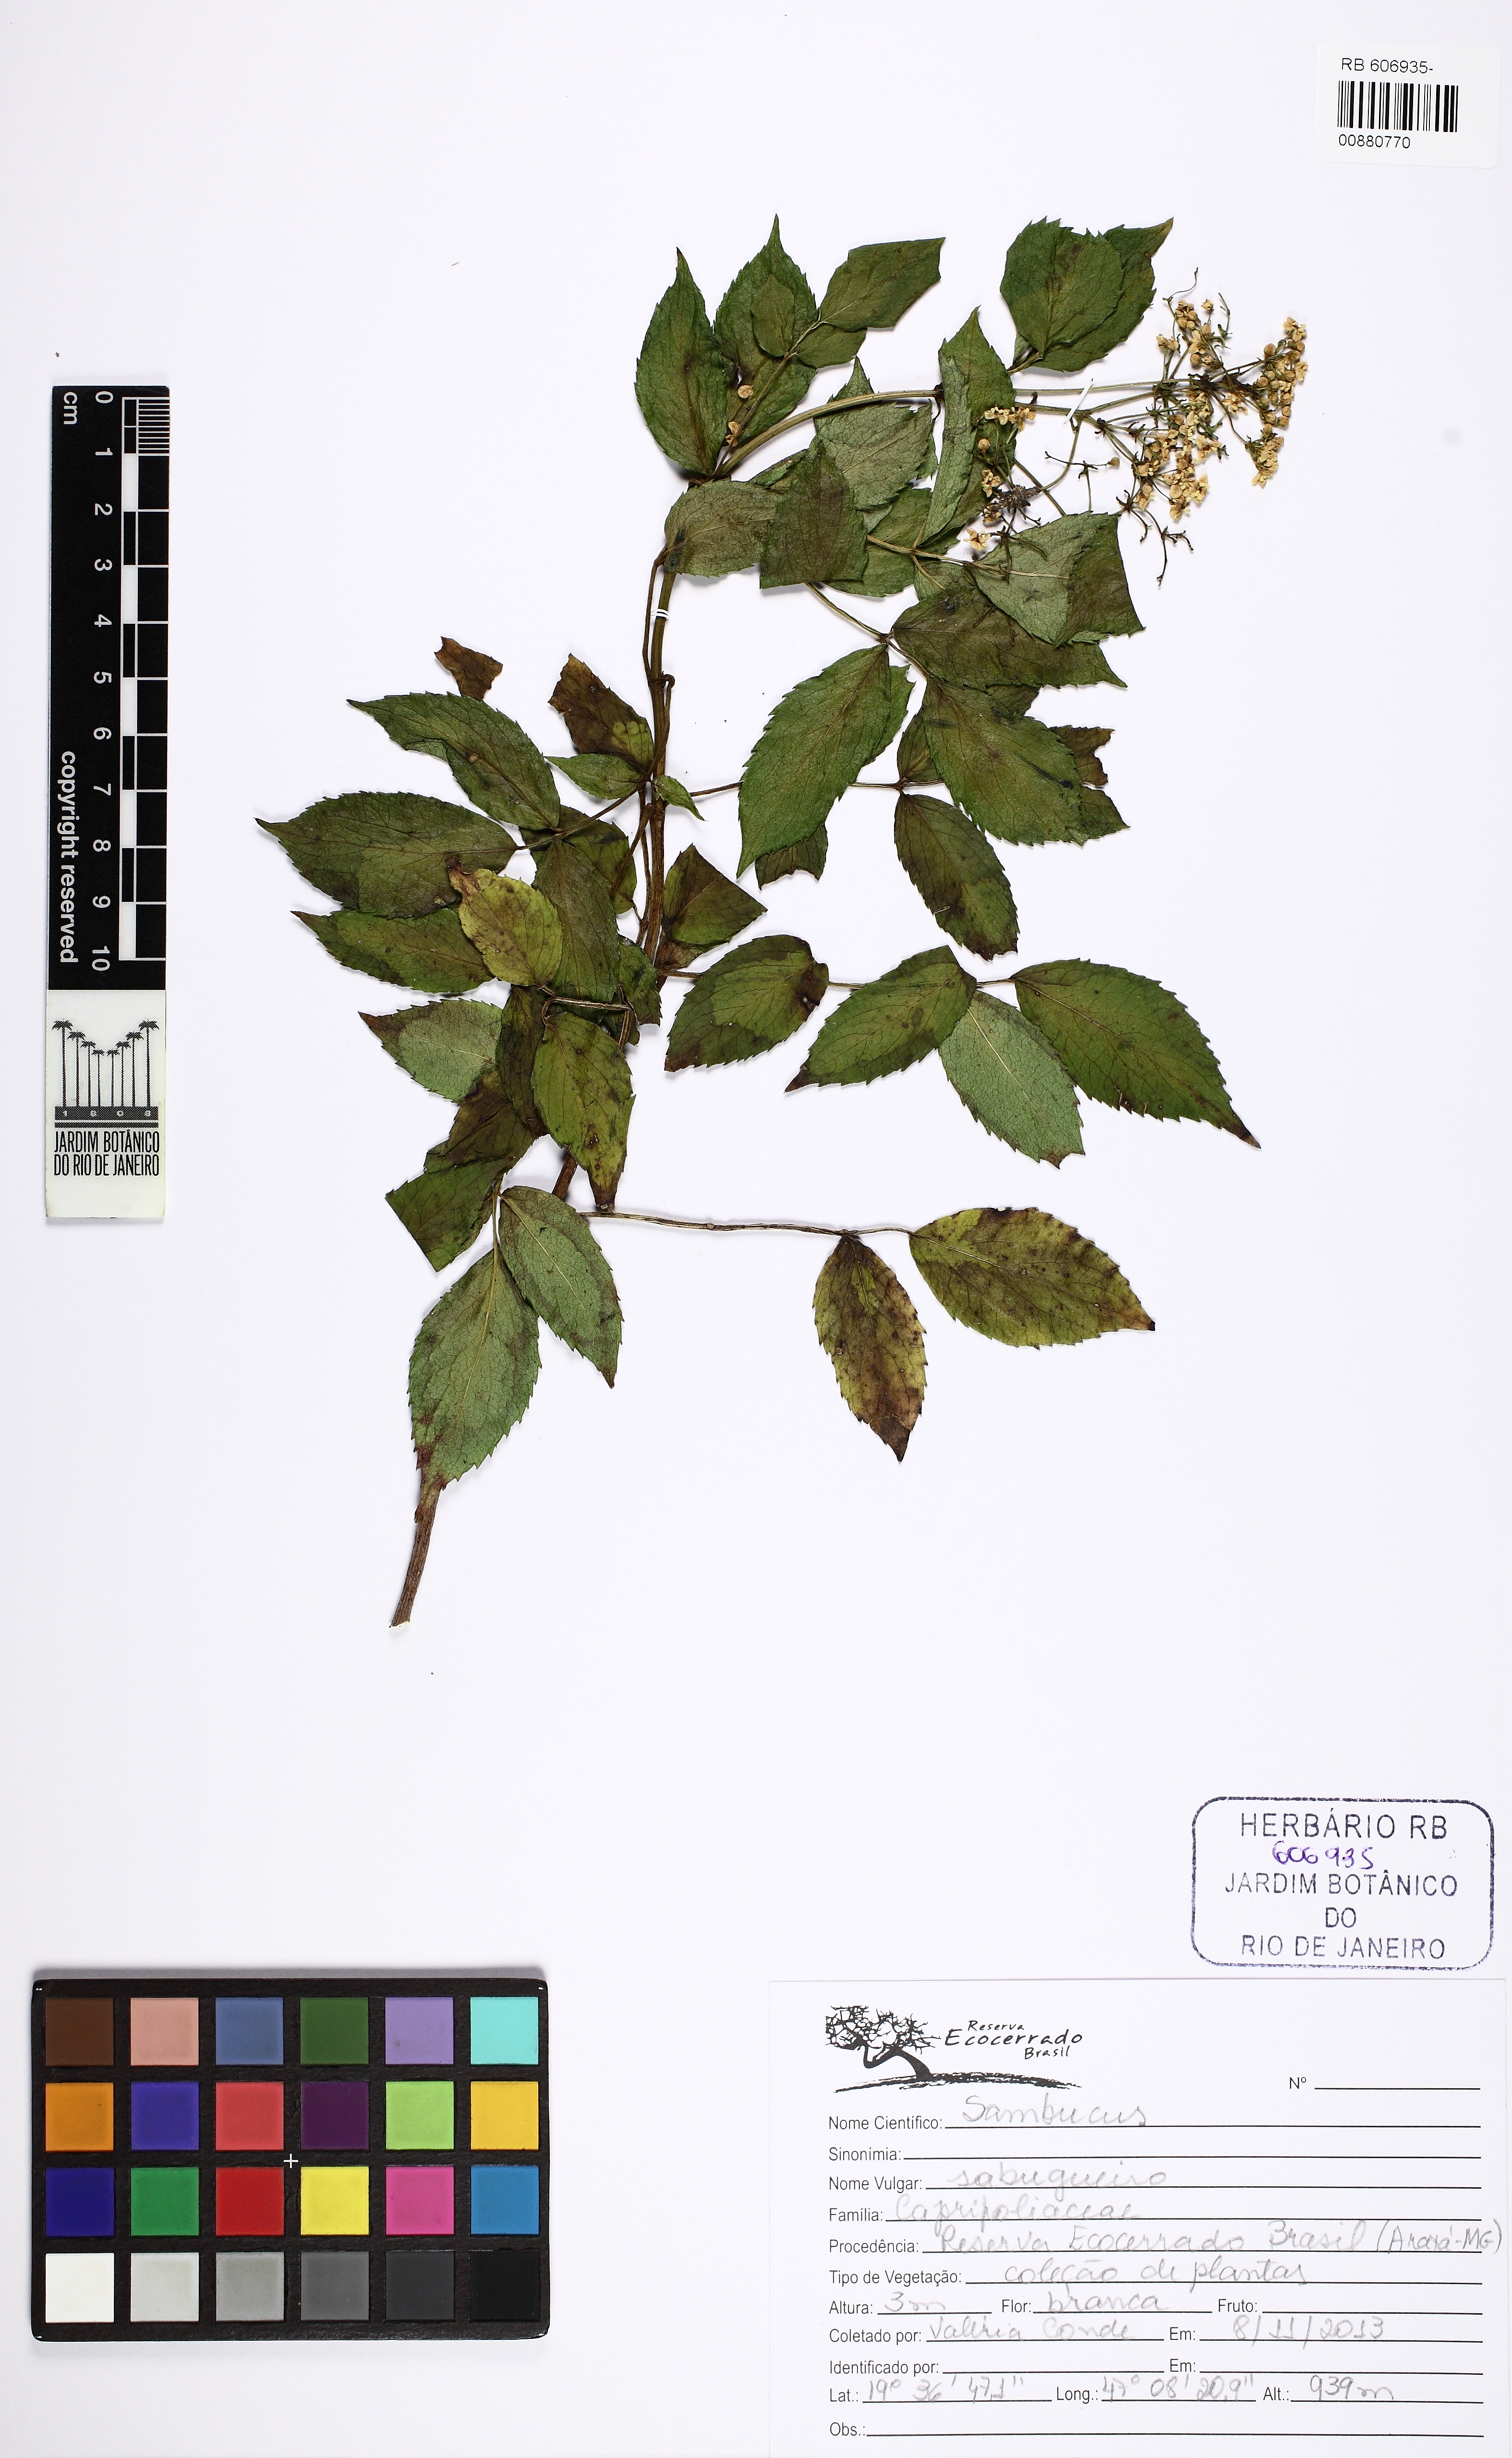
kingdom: Plantae
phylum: Tracheophyta
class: Magnoliopsida
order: Dipsacales
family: Viburnaceae
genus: Sambucus
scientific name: Sambucus
